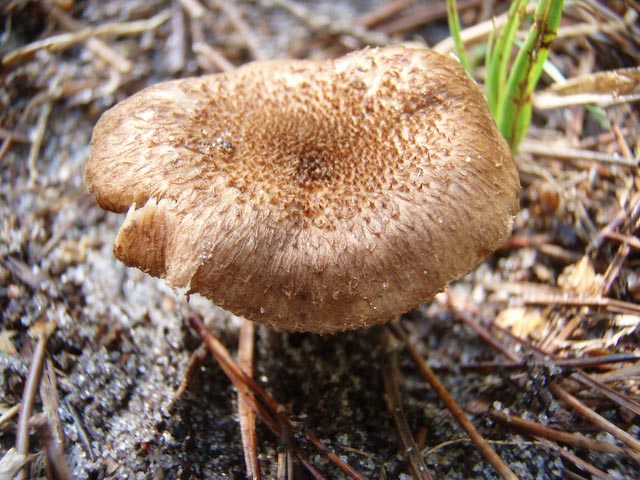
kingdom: Fungi
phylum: Basidiomycota
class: Agaricomycetes
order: Agaricales
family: Inocybaceae
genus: Inocybe
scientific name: Inocybe lanuginosa
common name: uldskællet trævlhat
